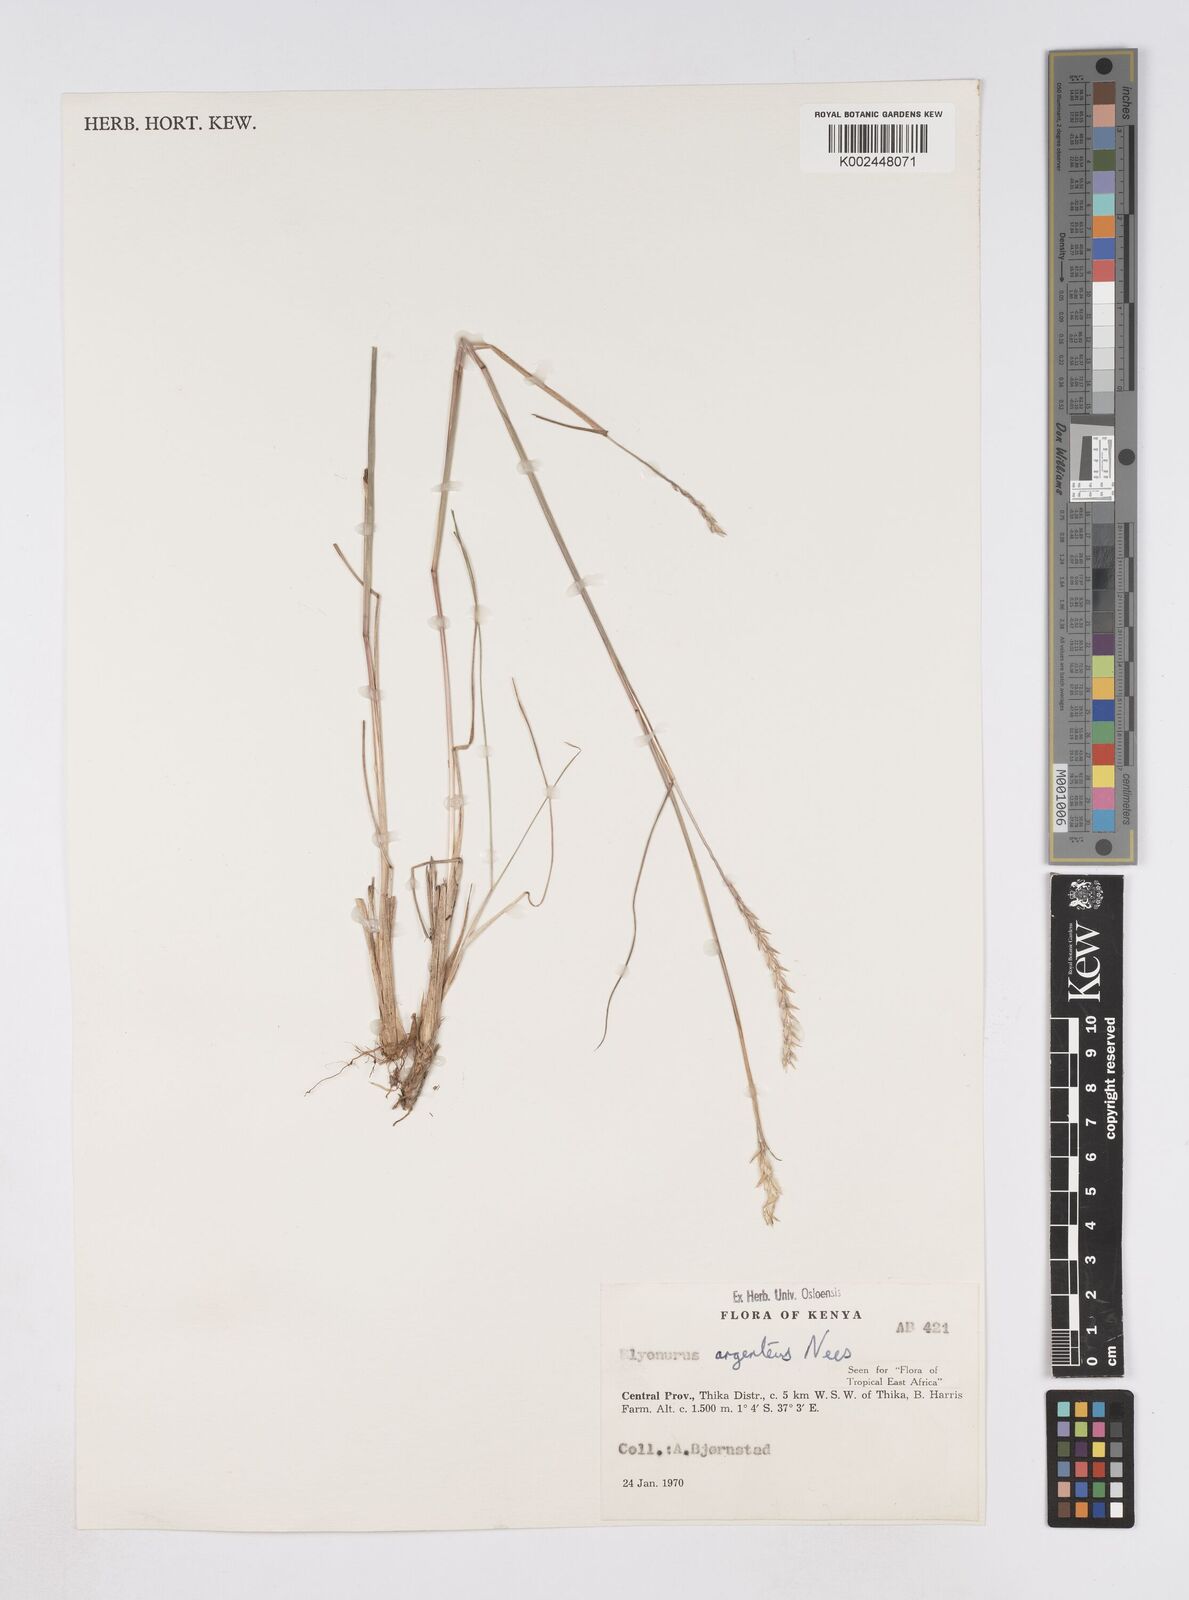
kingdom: Plantae
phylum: Tracheophyta
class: Liliopsida
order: Poales
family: Poaceae
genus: Elionurus
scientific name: Elionurus muticus
